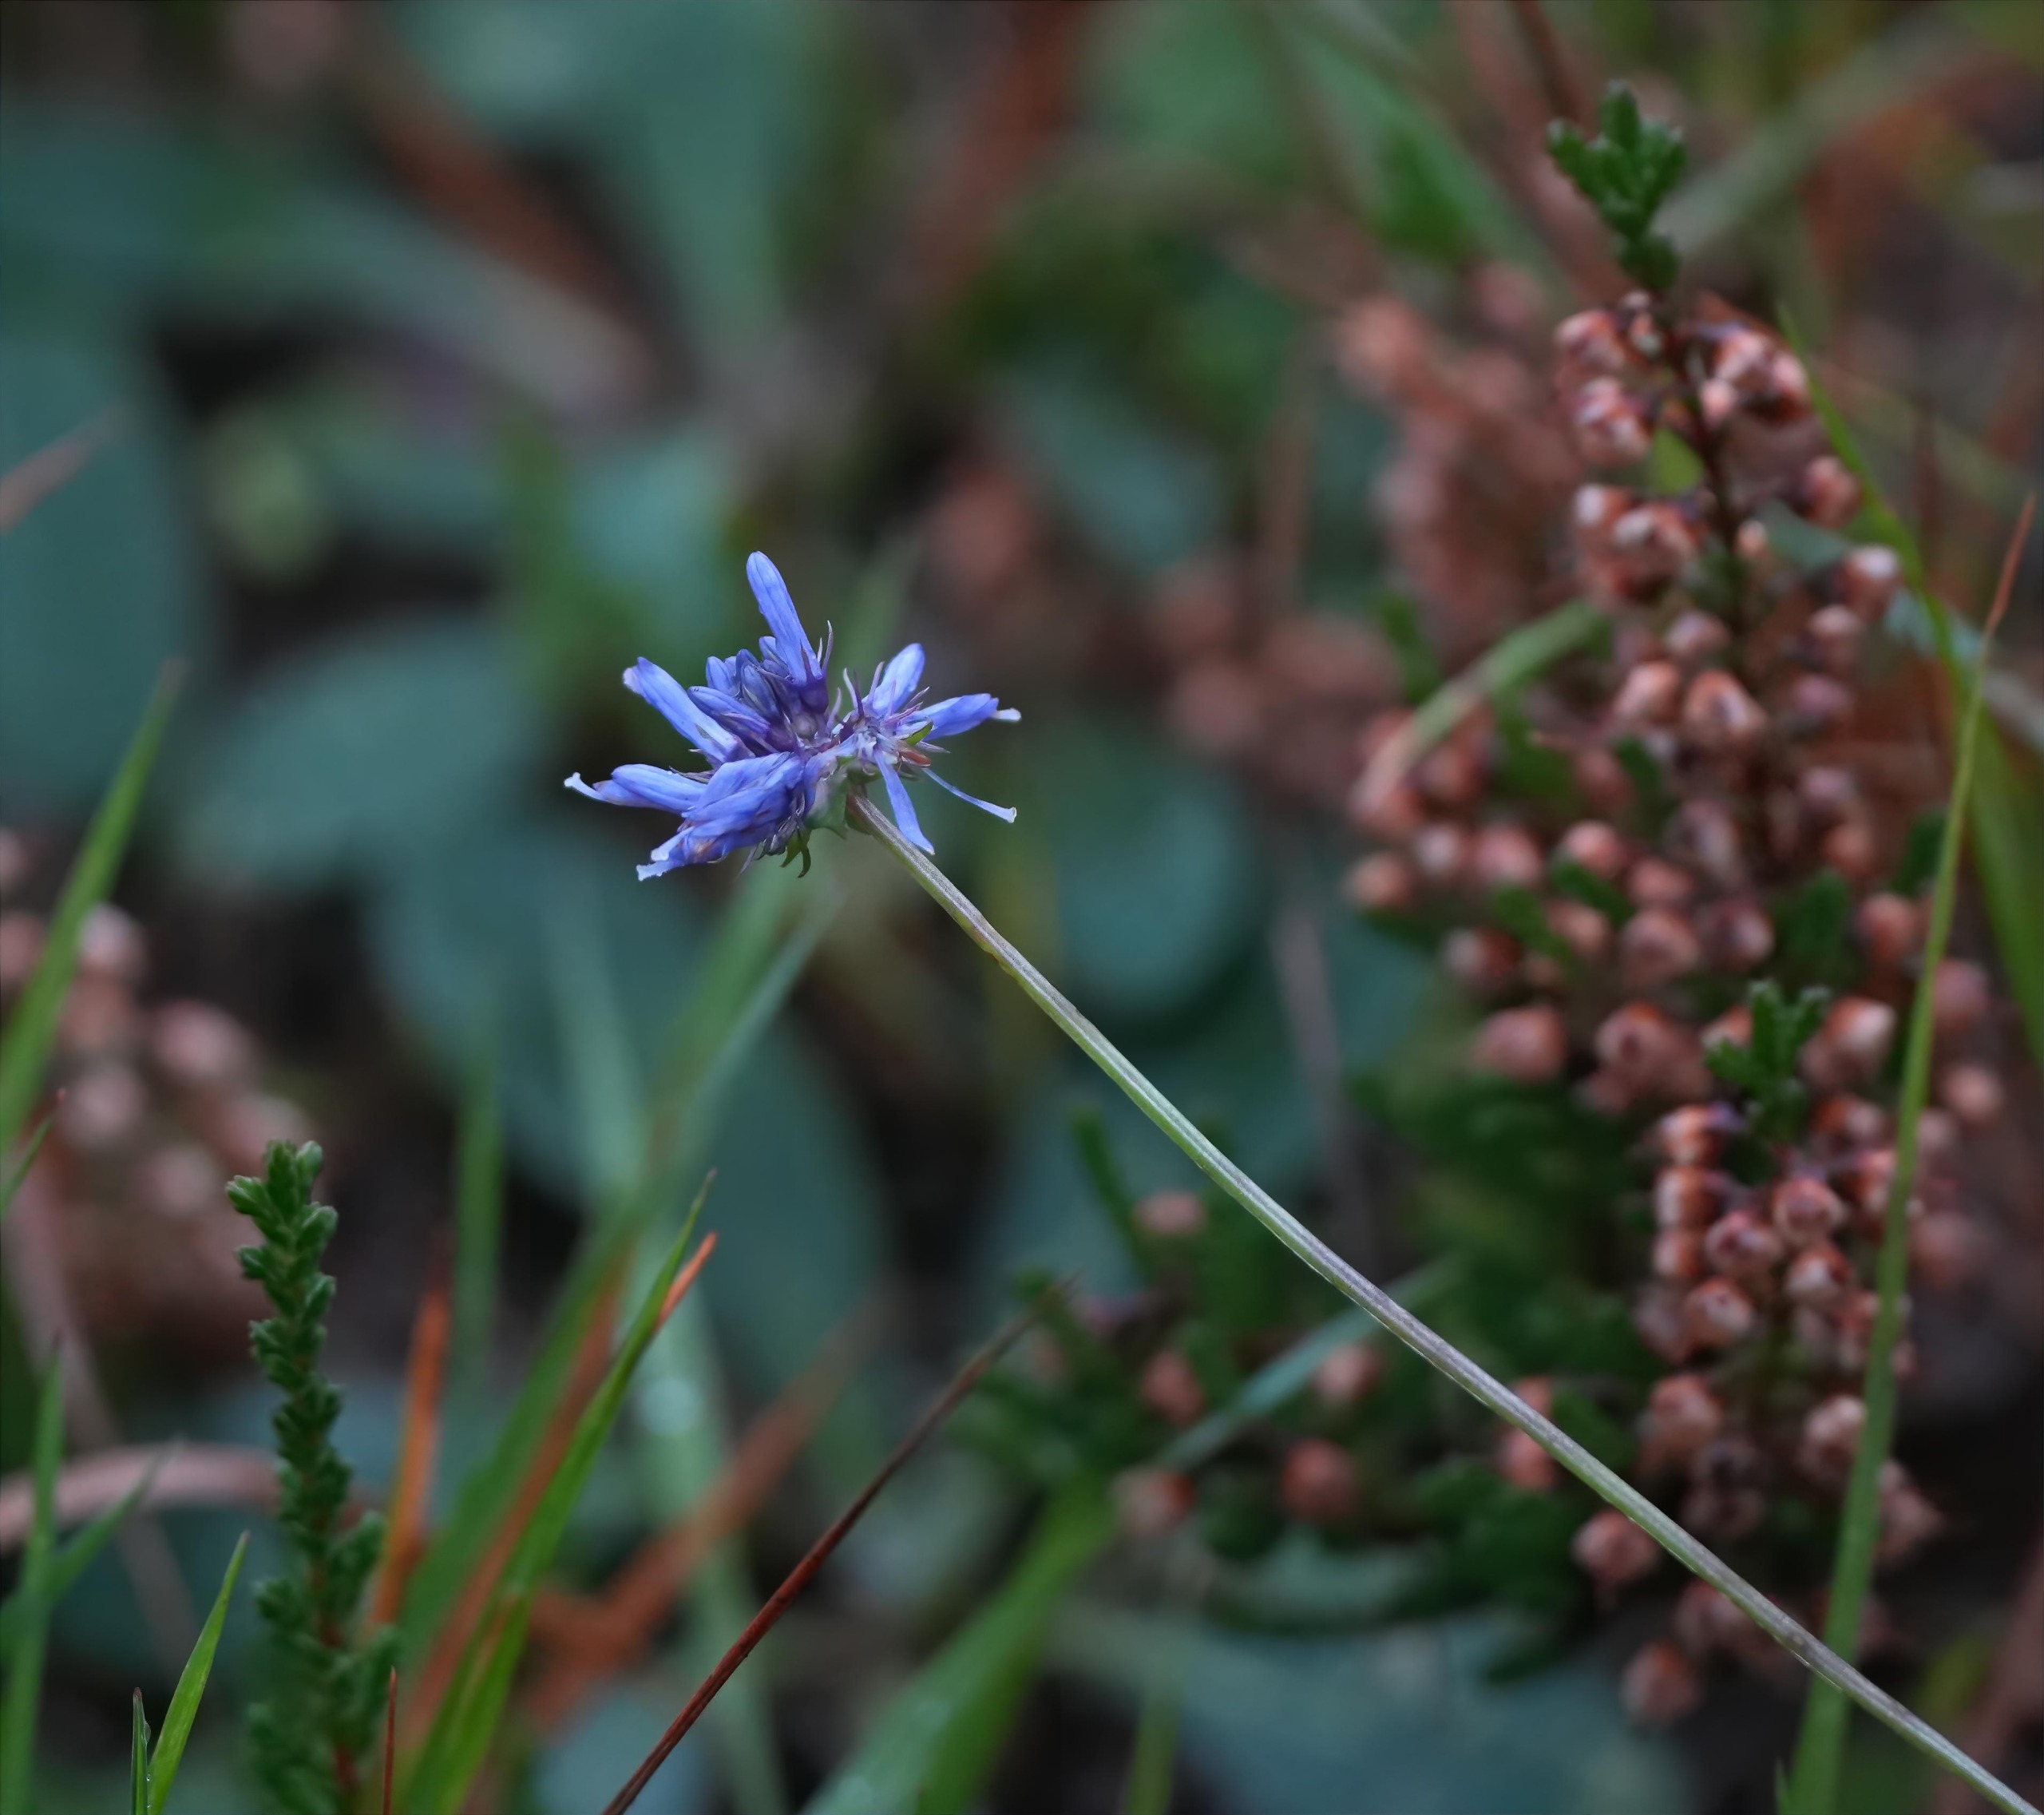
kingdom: Plantae
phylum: Tracheophyta
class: Magnoliopsida
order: Asterales
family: Campanulaceae
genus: Jasione
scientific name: Jasione montana
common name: Blåmunke
